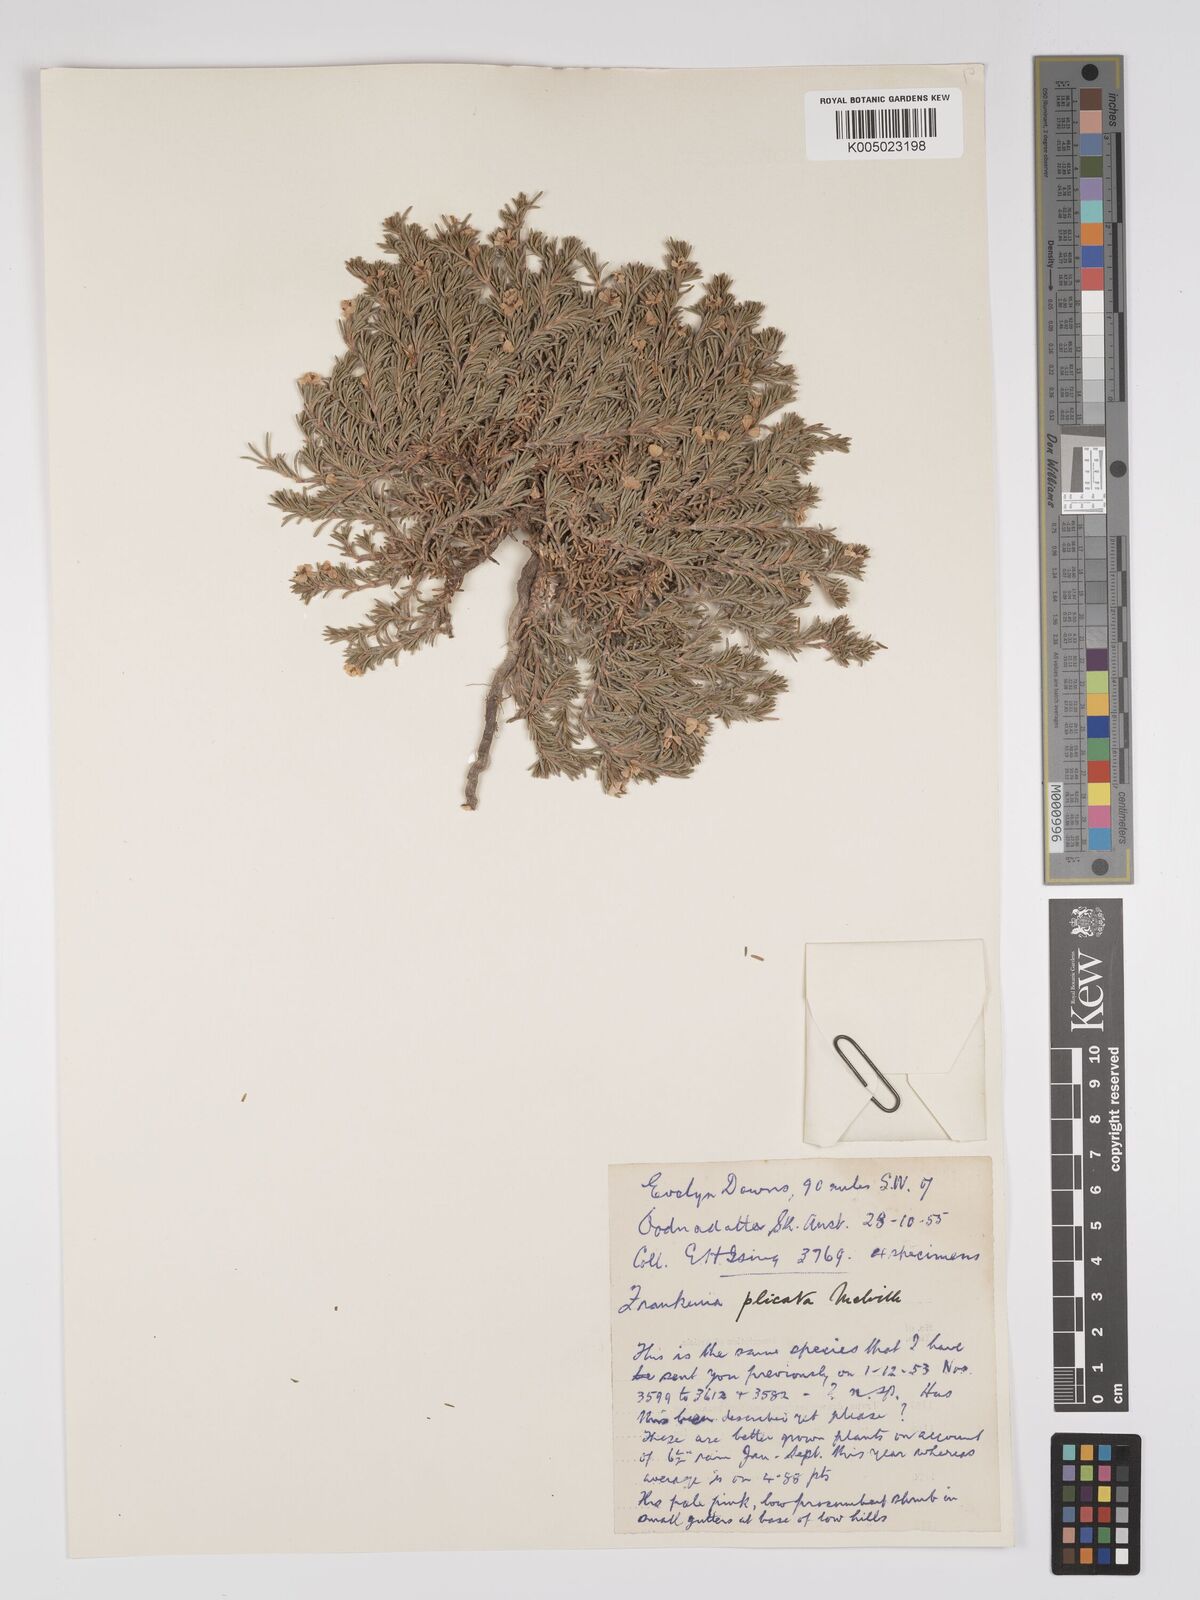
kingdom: Plantae
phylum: Tracheophyta
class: Magnoliopsida
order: Caryophyllales
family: Frankeniaceae
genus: Frankenia
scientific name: Frankenia plicata
